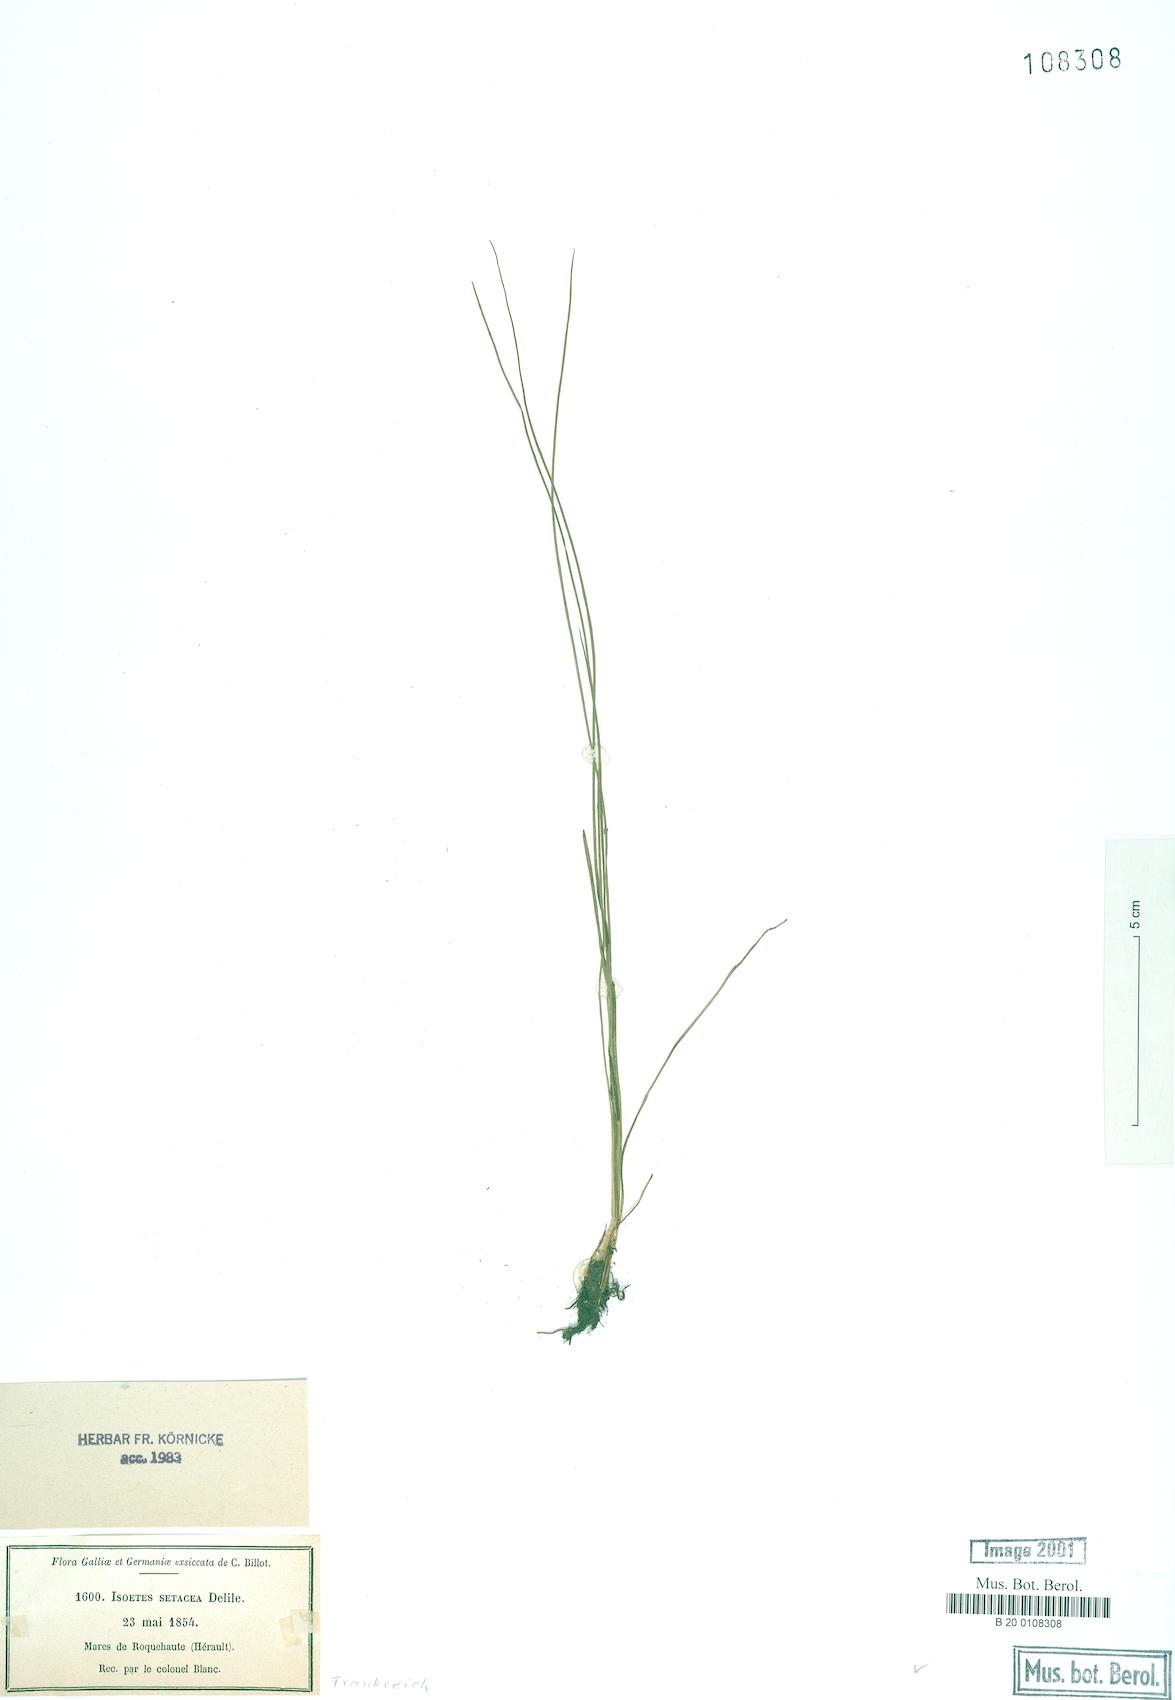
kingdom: Plantae
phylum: Tracheophyta
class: Lycopodiopsida
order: Isoetales
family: Isoetaceae
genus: Isoetes
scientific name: Isoetes lacustris
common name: Common quillwort
